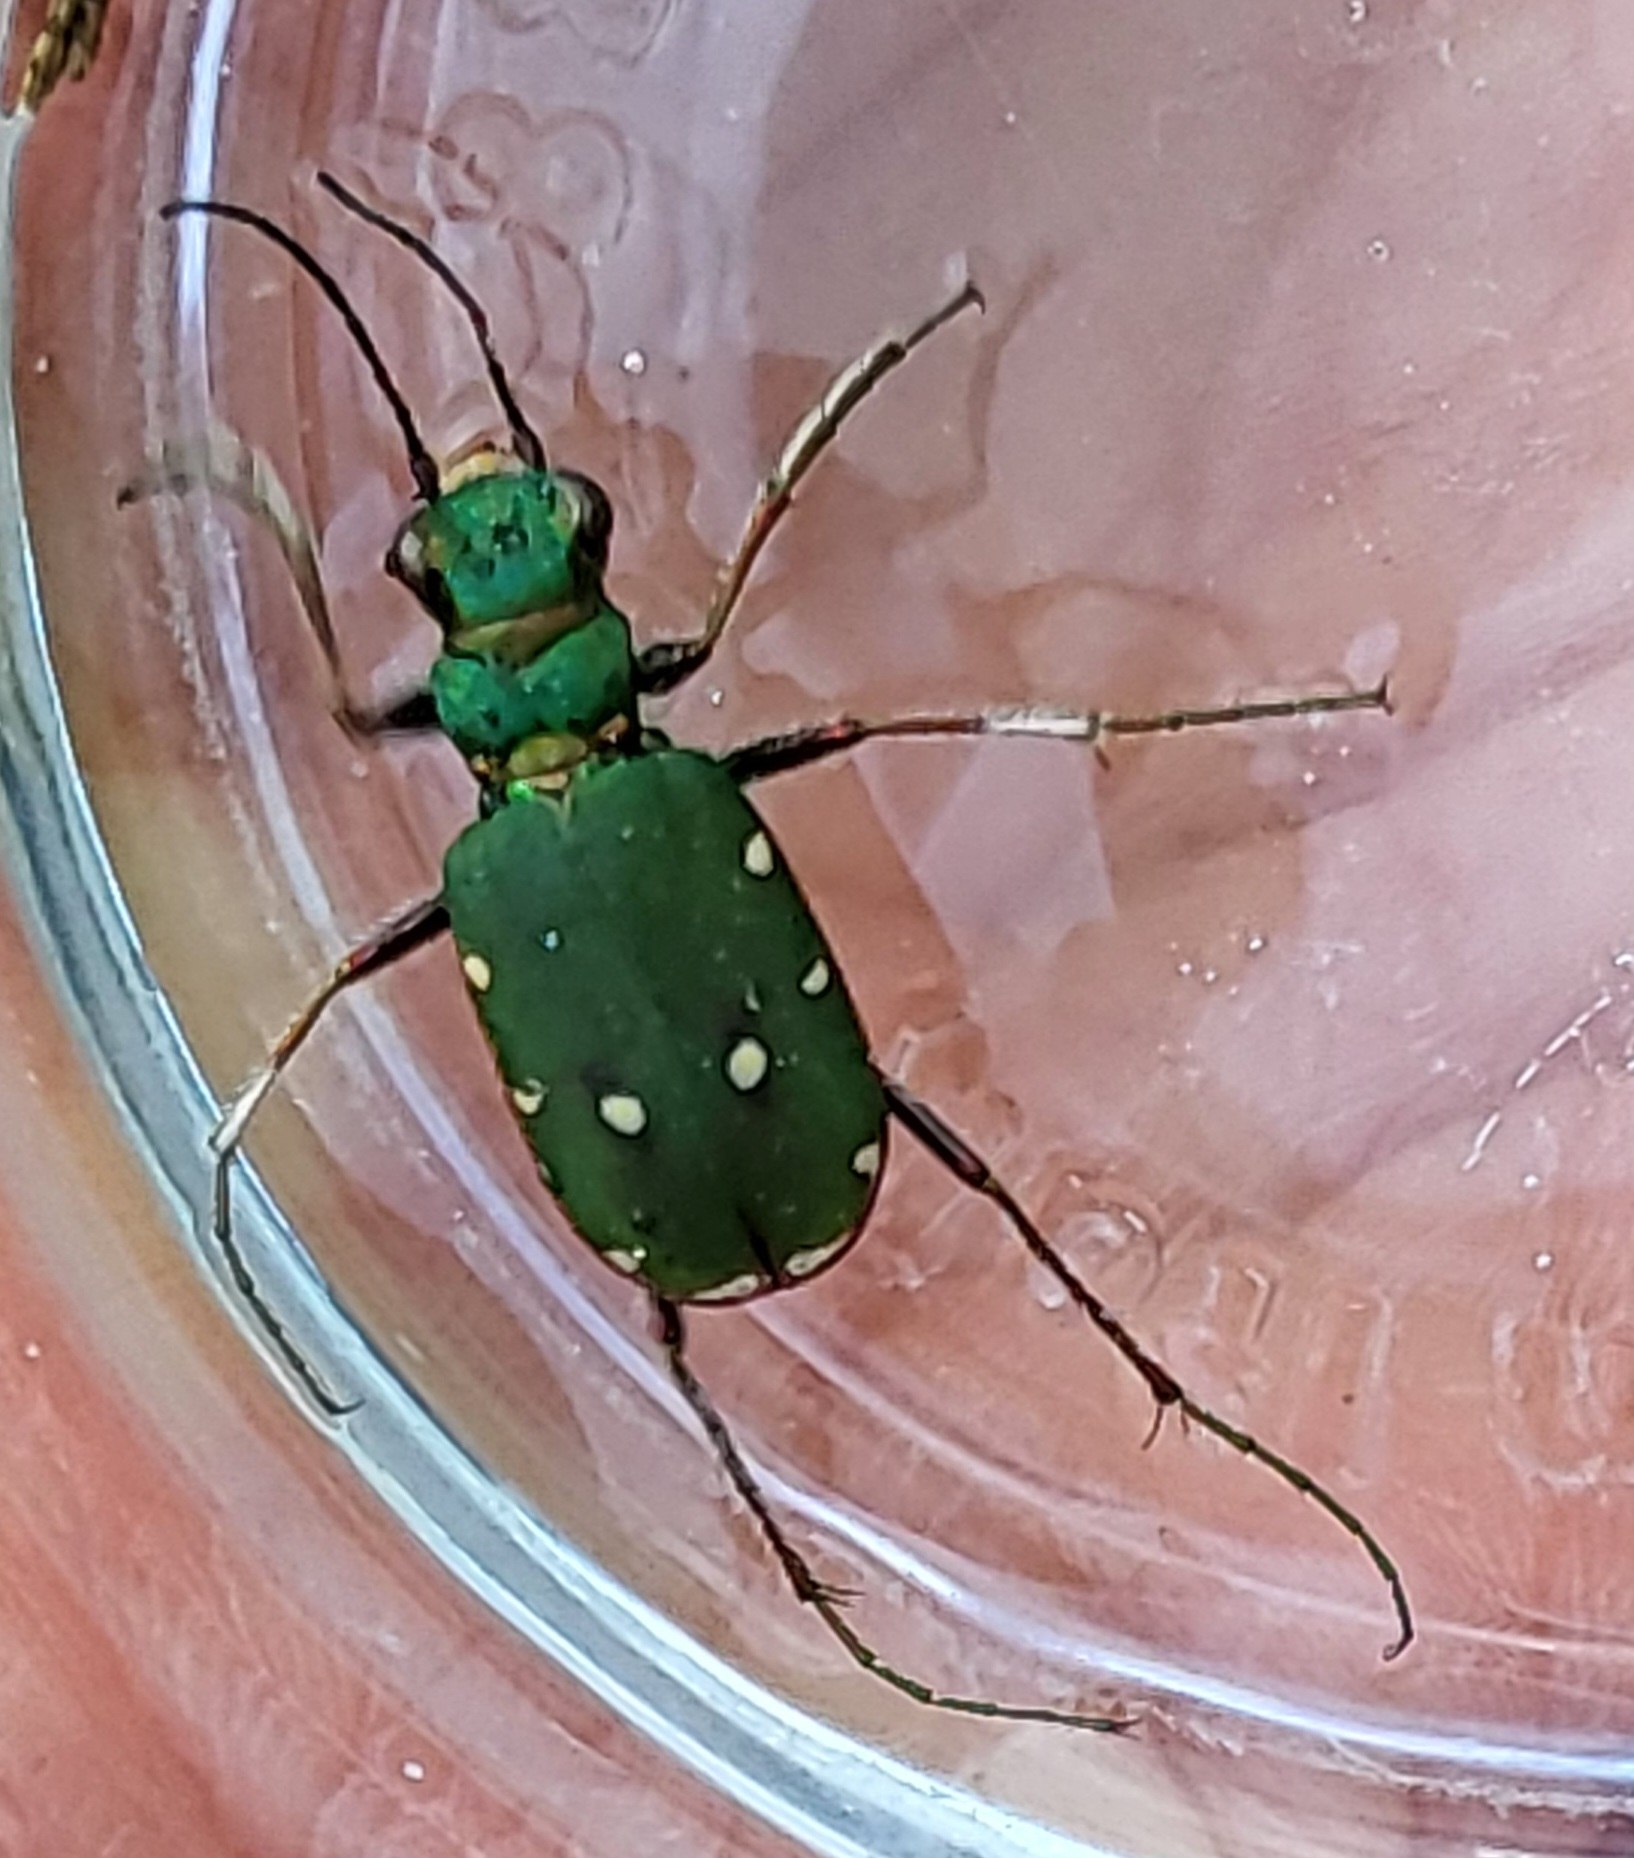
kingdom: Animalia
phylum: Arthropoda
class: Insecta
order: Coleoptera
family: Carabidae
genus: Cicindela
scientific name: Cicindela campestris
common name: Grøn sandspringer
